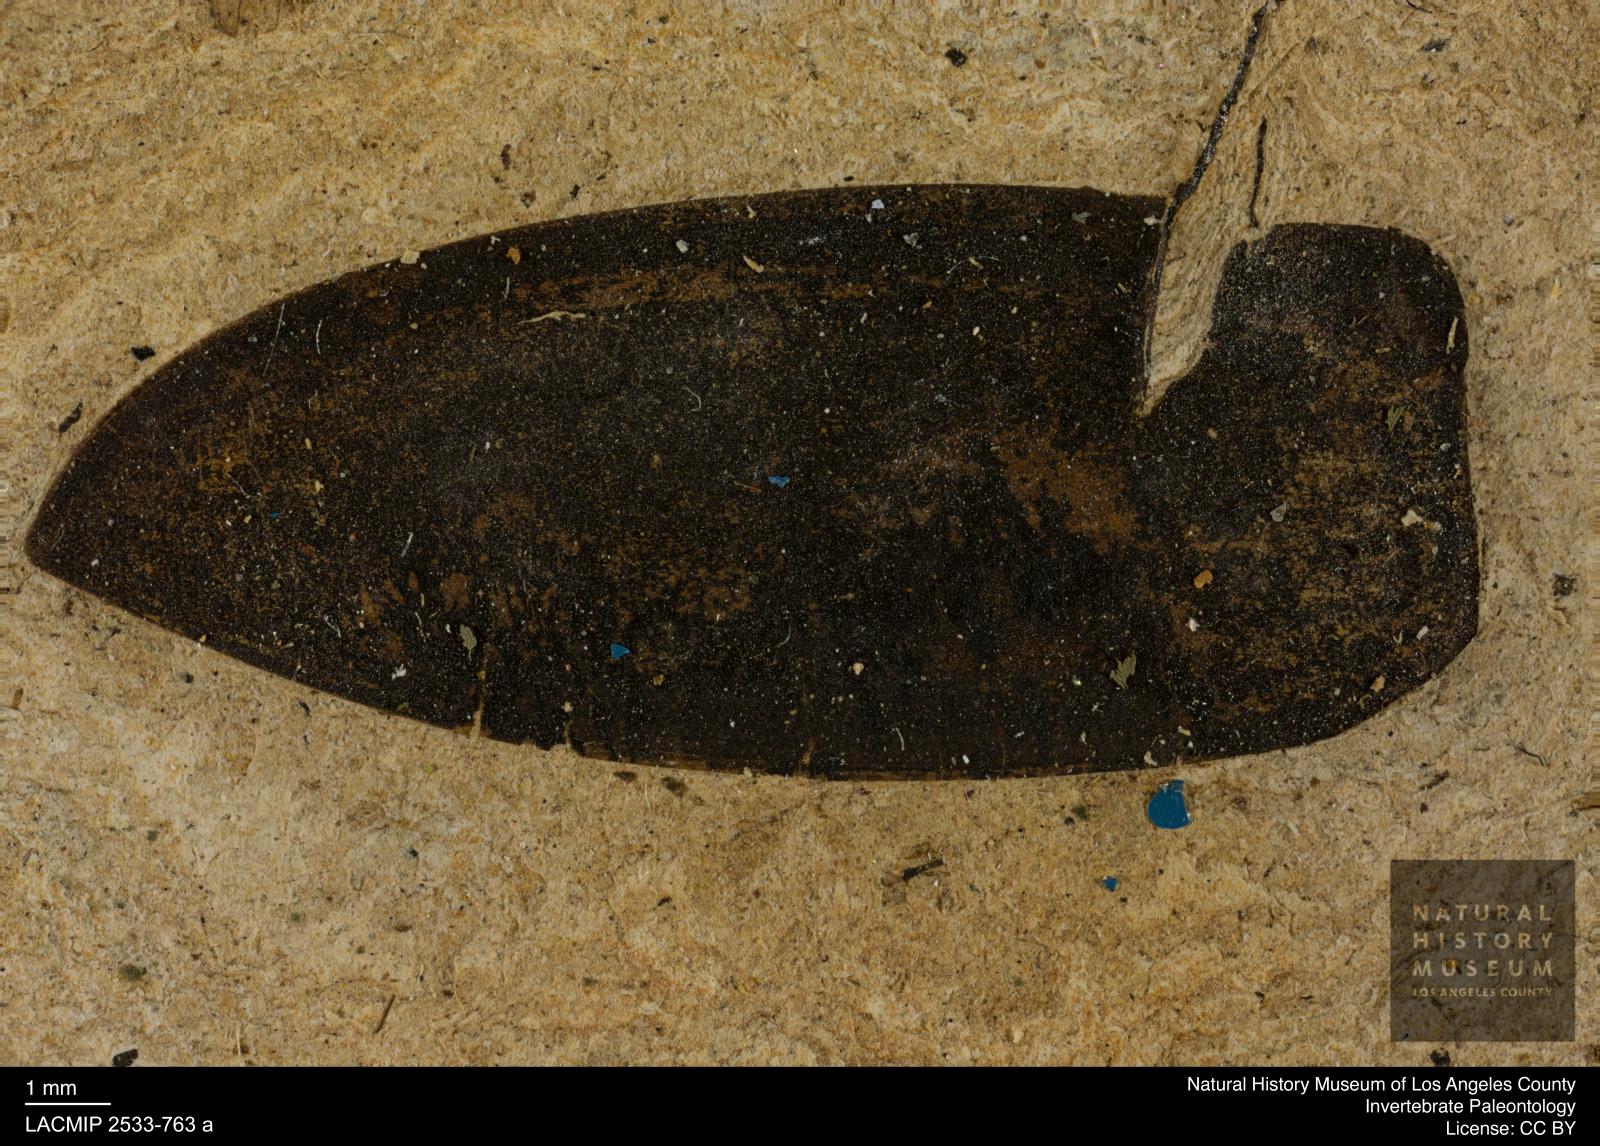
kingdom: Animalia
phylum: Arthropoda
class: Insecta
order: Coleoptera
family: Hydrophilidae
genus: Hydrobiomorpha
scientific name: Hydrobiomorpha fraterna
